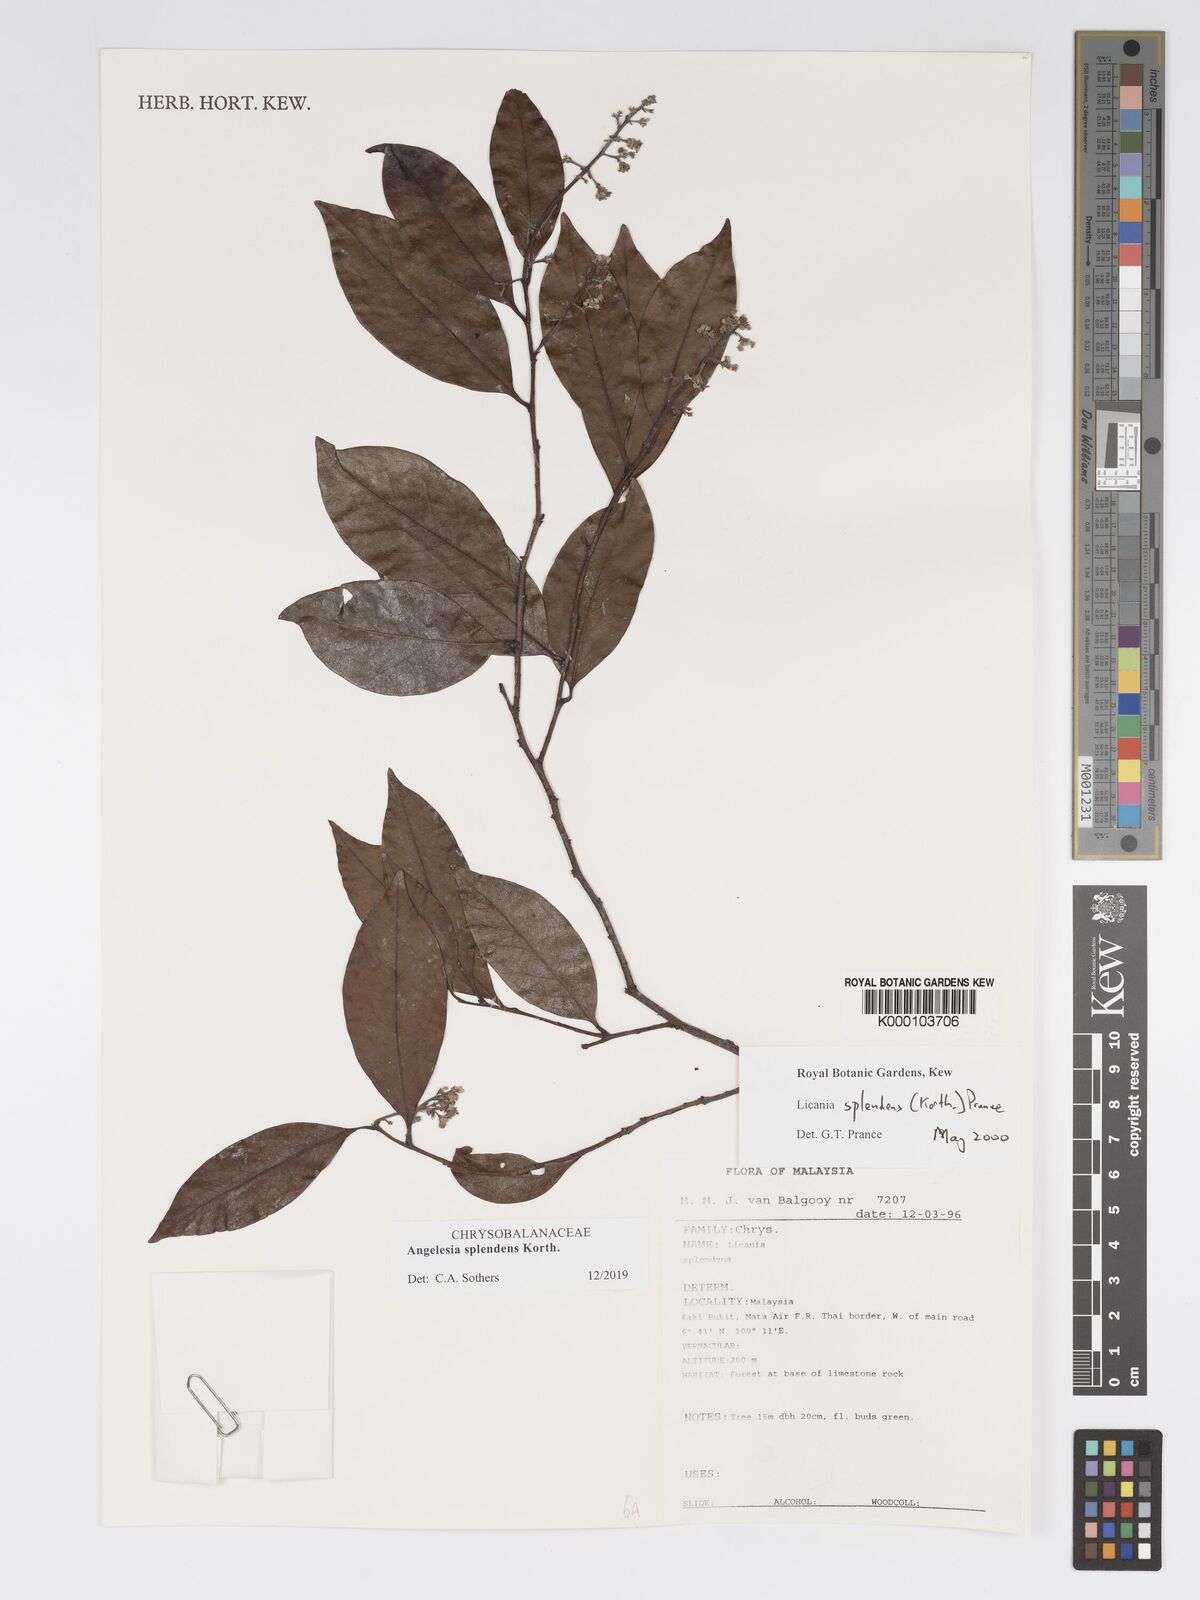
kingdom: Plantae
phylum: Tracheophyta
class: Magnoliopsida
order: Malpighiales
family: Chrysobalanaceae
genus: Angelesia
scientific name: Angelesia splendens
